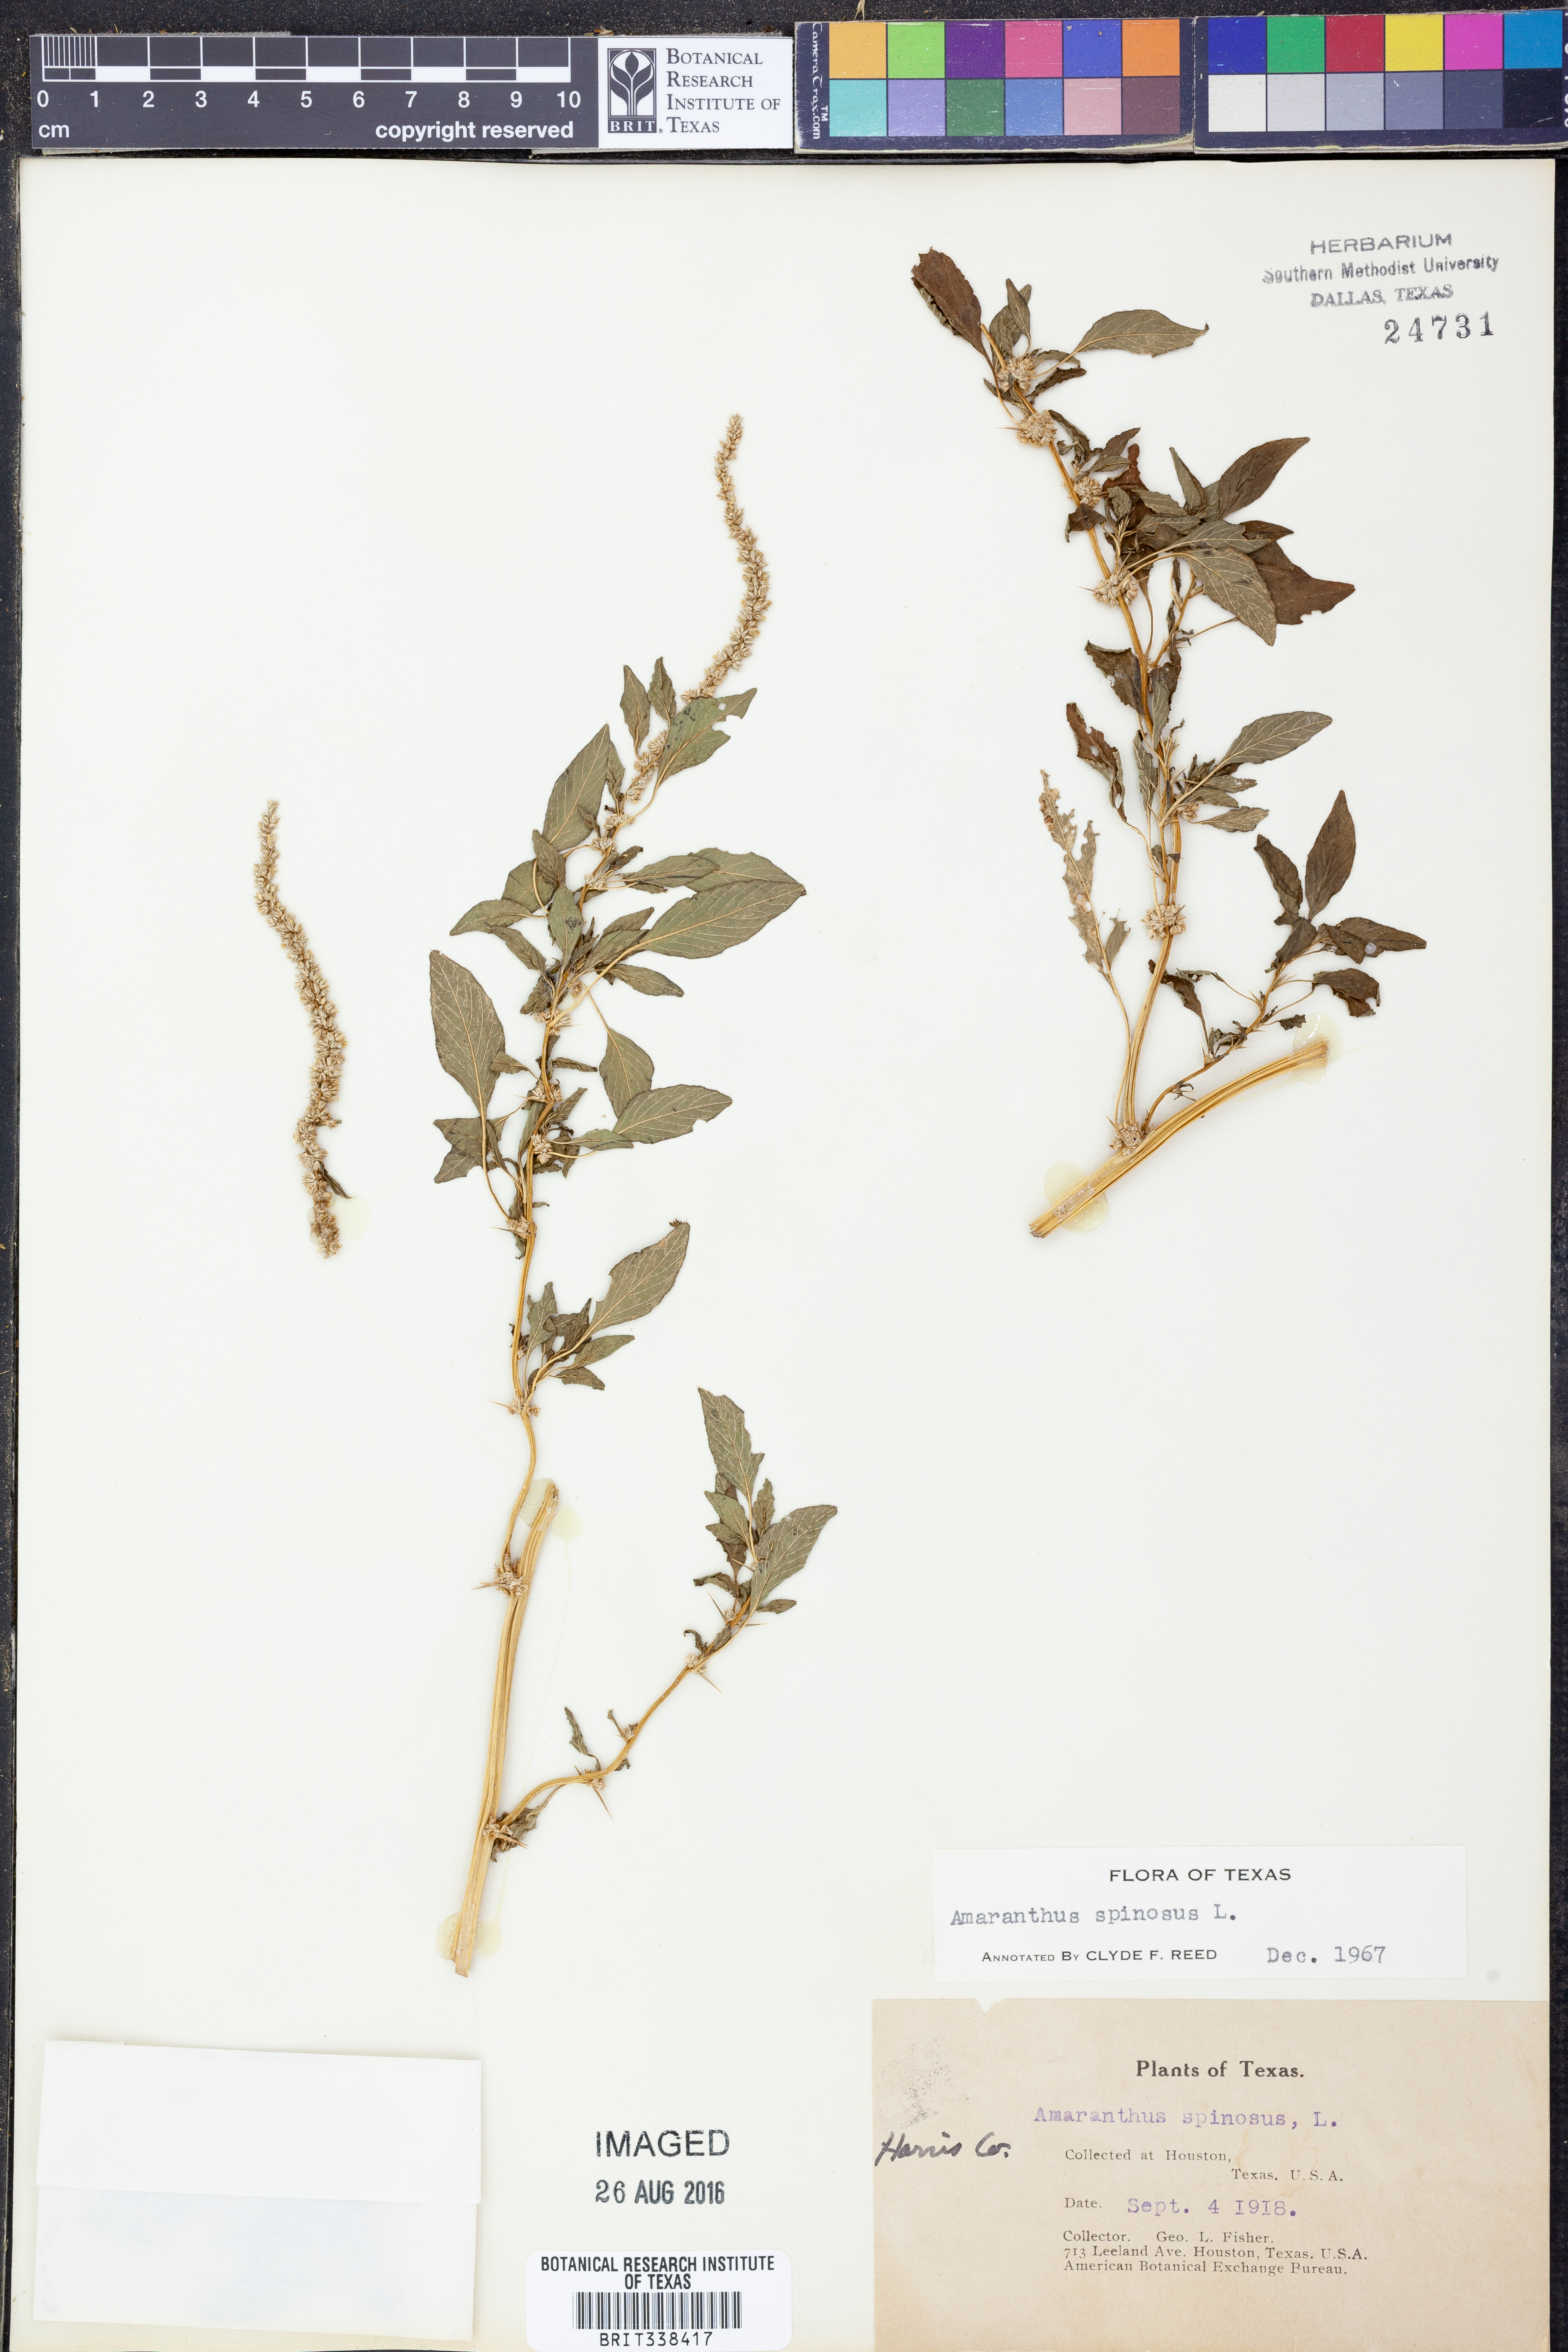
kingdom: Plantae
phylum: Tracheophyta
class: Magnoliopsida
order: Caryophyllales
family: Amaranthaceae
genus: Amaranthus
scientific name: Amaranthus spinosus
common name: Spiny amaranth
